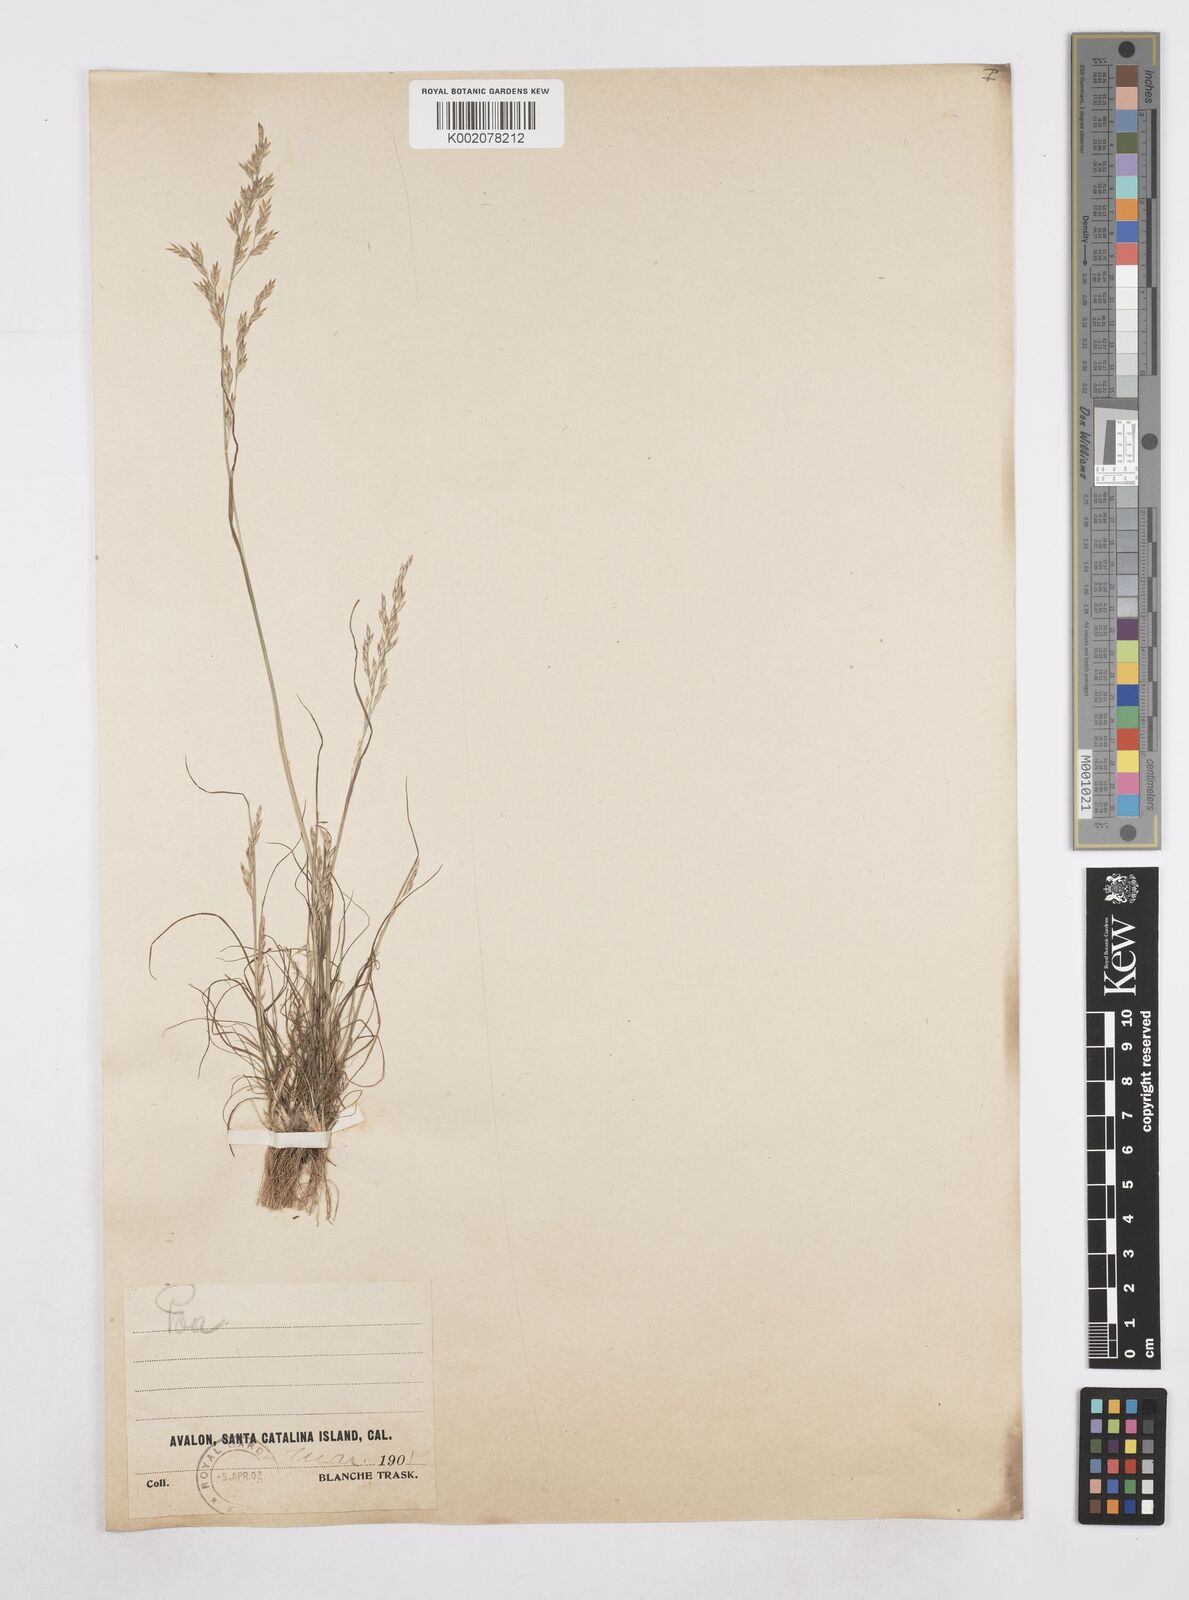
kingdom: Plantae
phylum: Tracheophyta
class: Liliopsida
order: Poales
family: Poaceae
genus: Poa
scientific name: Poa
